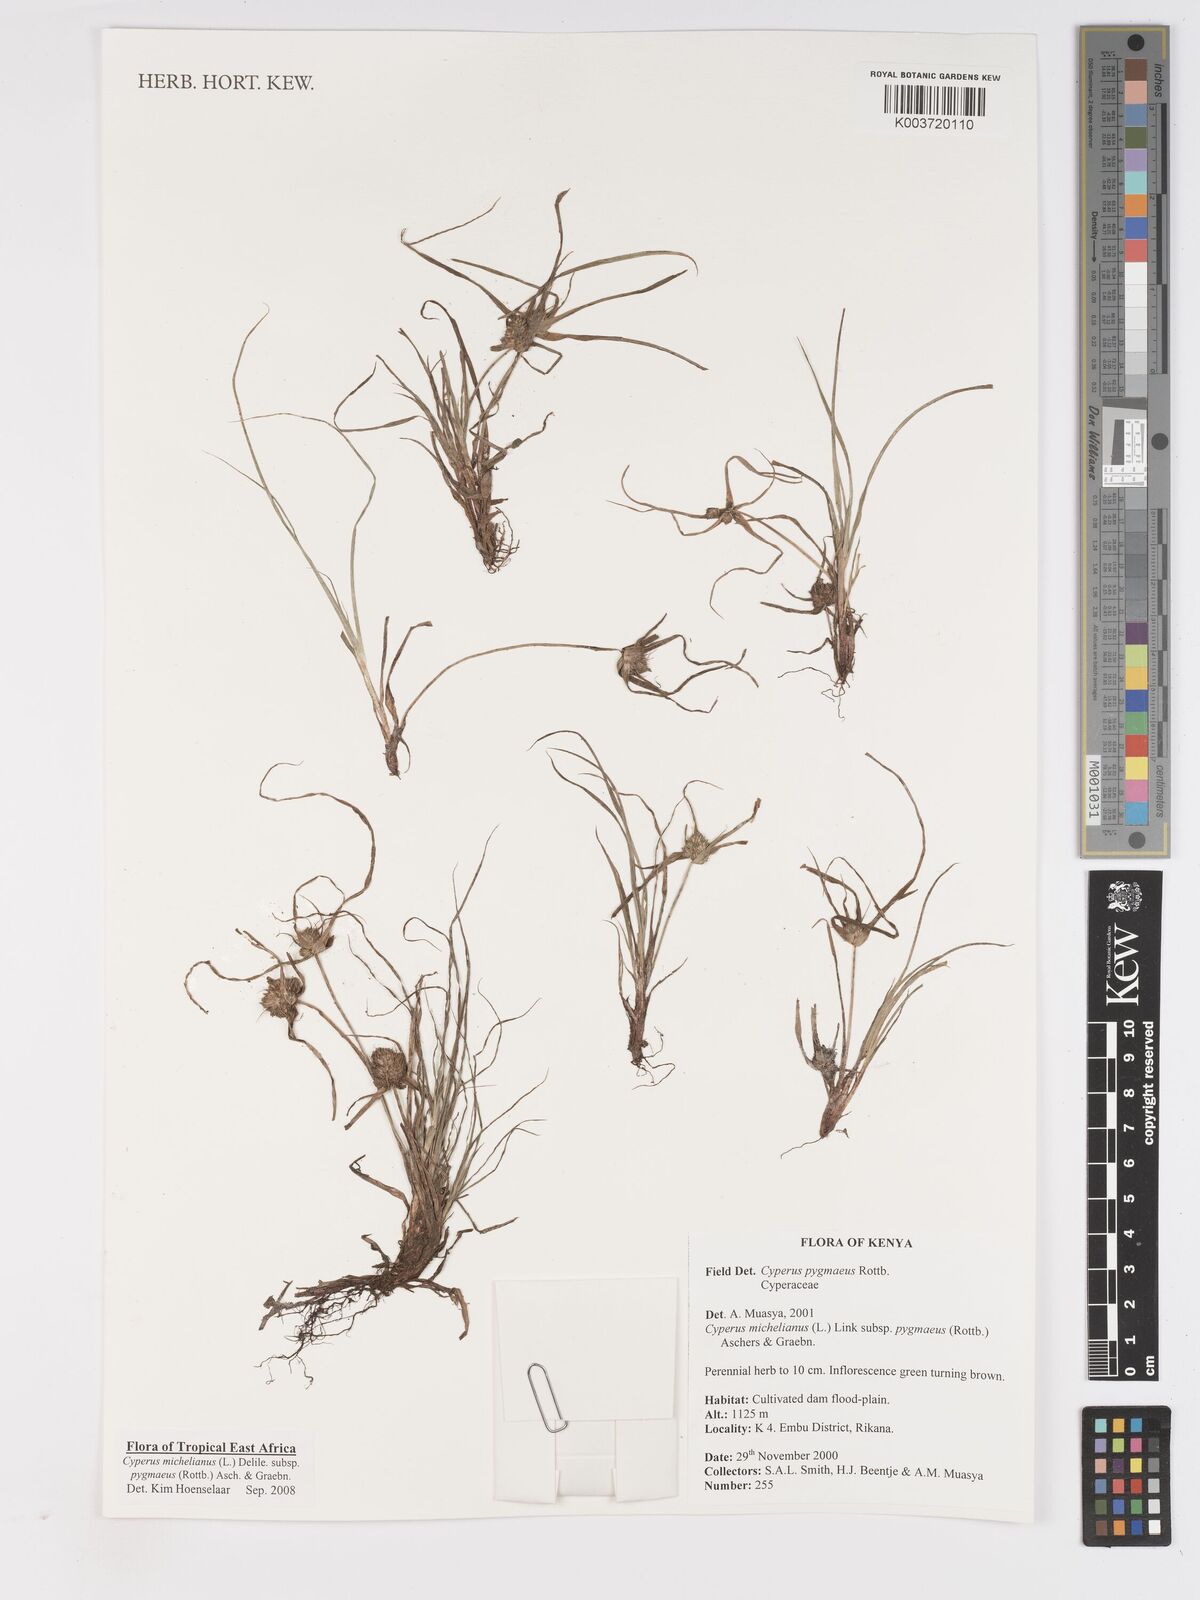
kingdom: Plantae
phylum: Tracheophyta
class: Liliopsida
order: Poales
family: Cyperaceae
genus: Cyperus
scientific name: Cyperus michelianus
